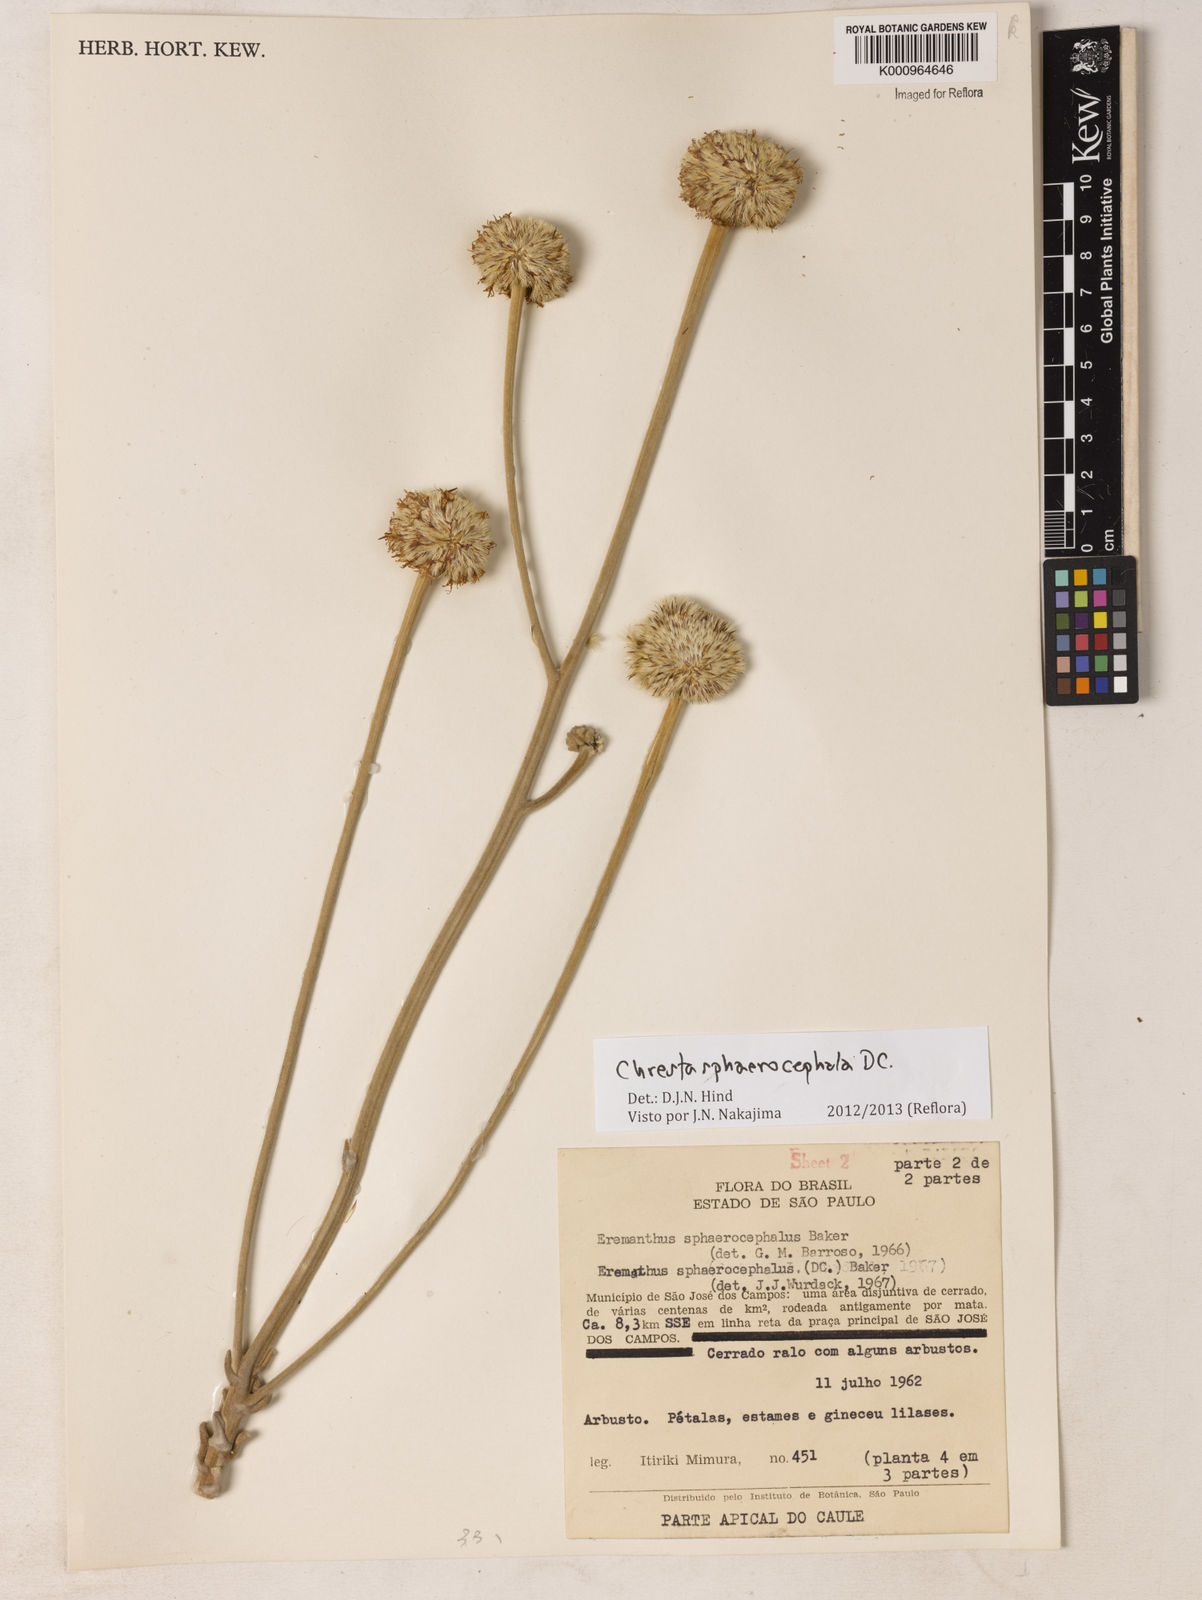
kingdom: Plantae
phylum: Tracheophyta
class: Magnoliopsida
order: Asterales
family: Asteraceae
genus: Chresta
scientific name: Chresta sphaerocephala
